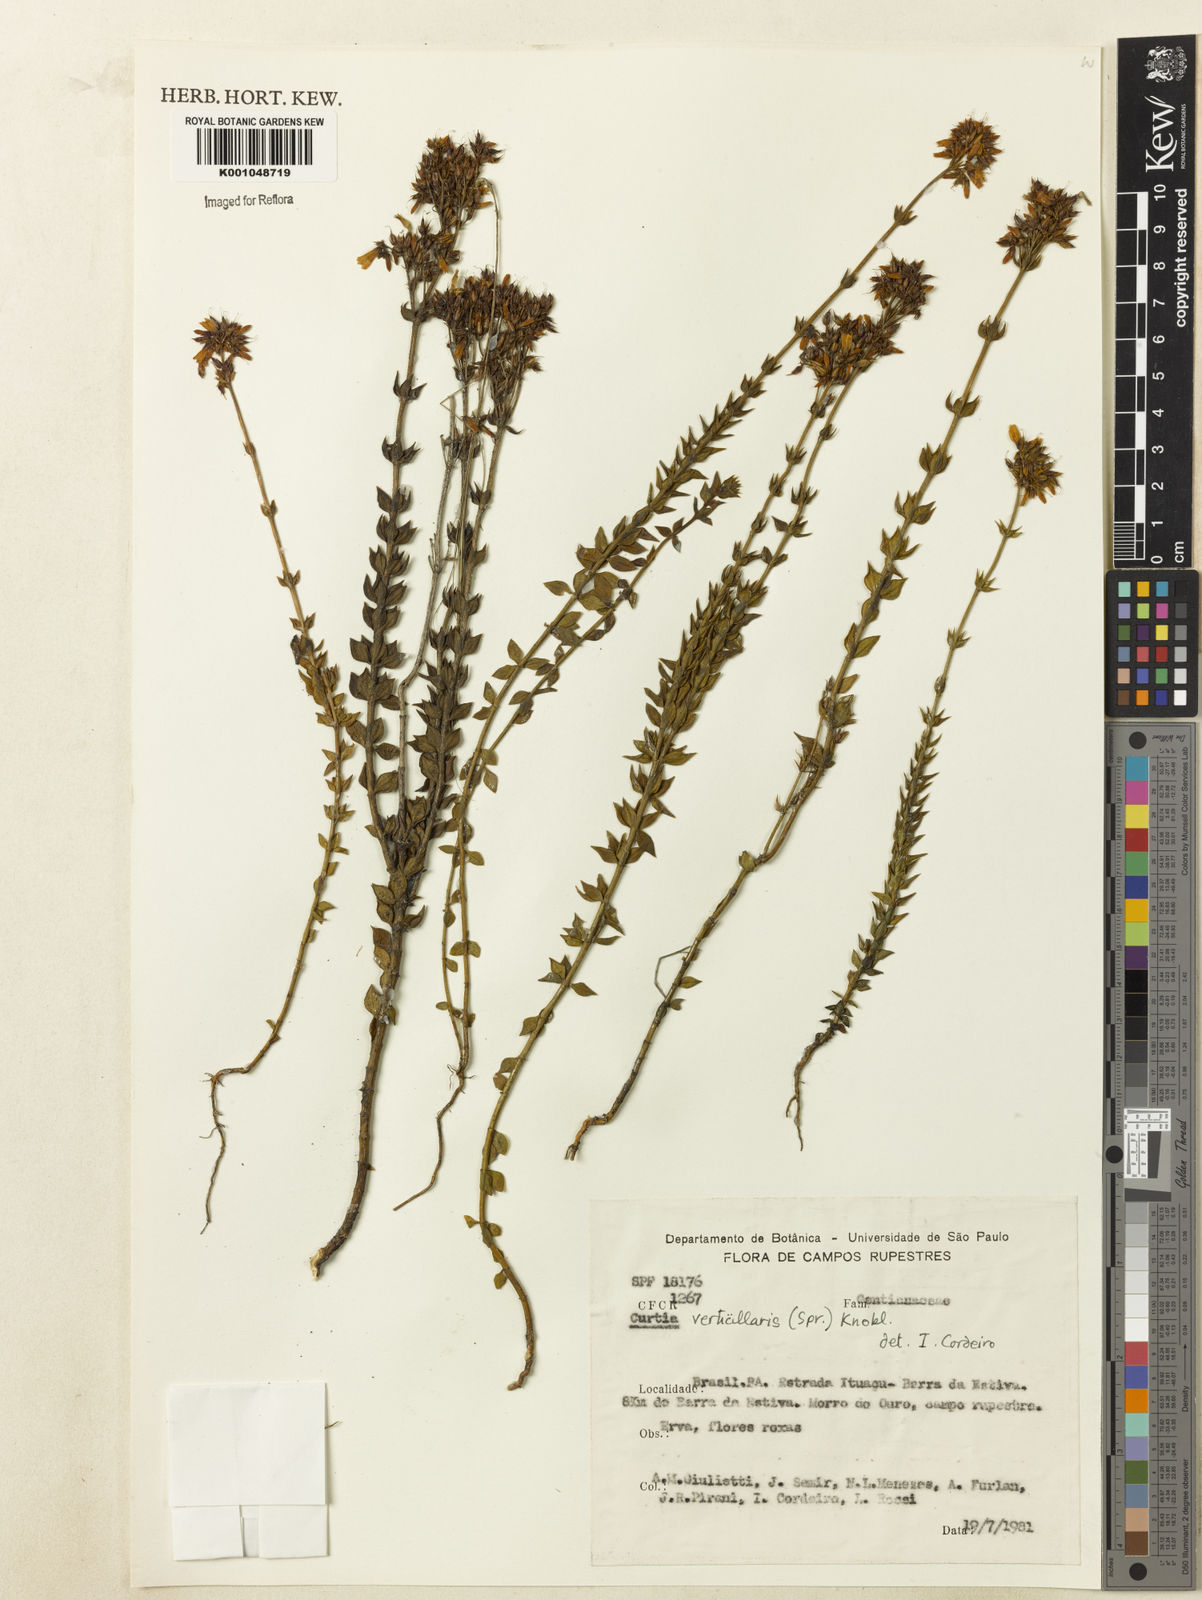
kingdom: Plantae
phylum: Tracheophyta
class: Magnoliopsida
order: Gentianales
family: Gentianaceae
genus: Curtia
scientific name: Curtia verticillaris
